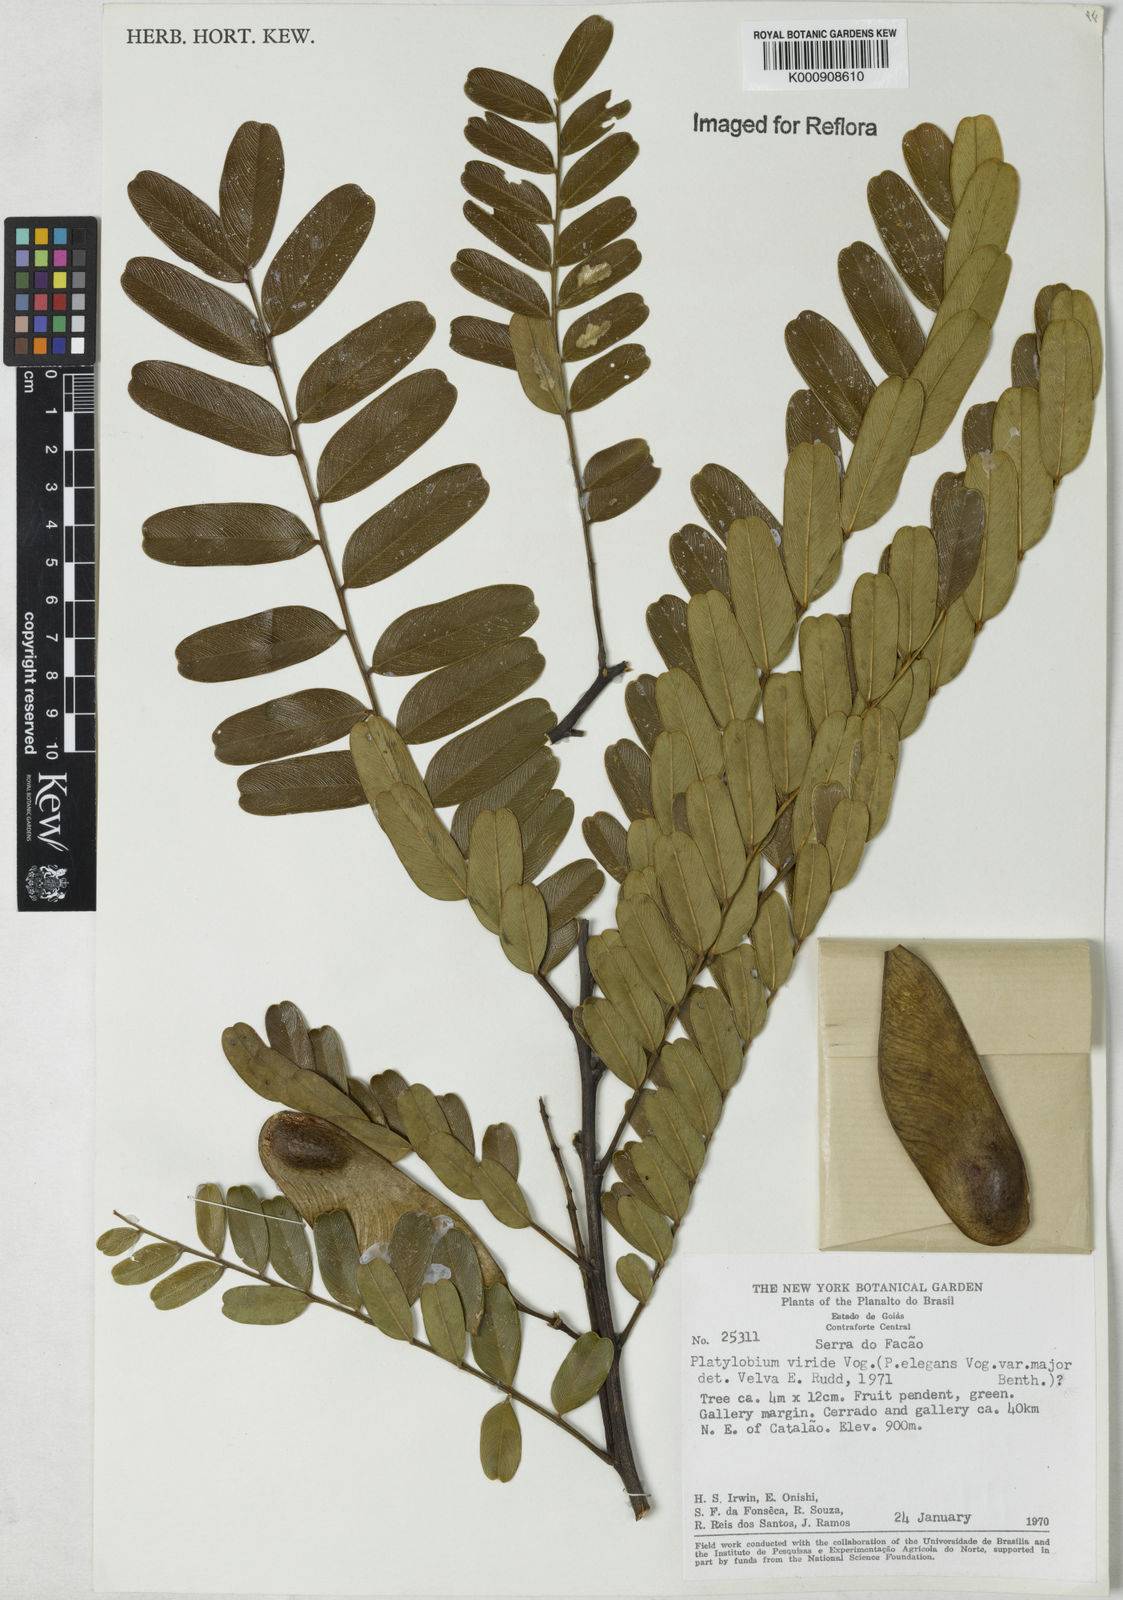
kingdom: Plantae
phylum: Tracheophyta
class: Magnoliopsida
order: Fabales
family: Fabaceae
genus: Platypodium
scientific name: Platypodium viride
